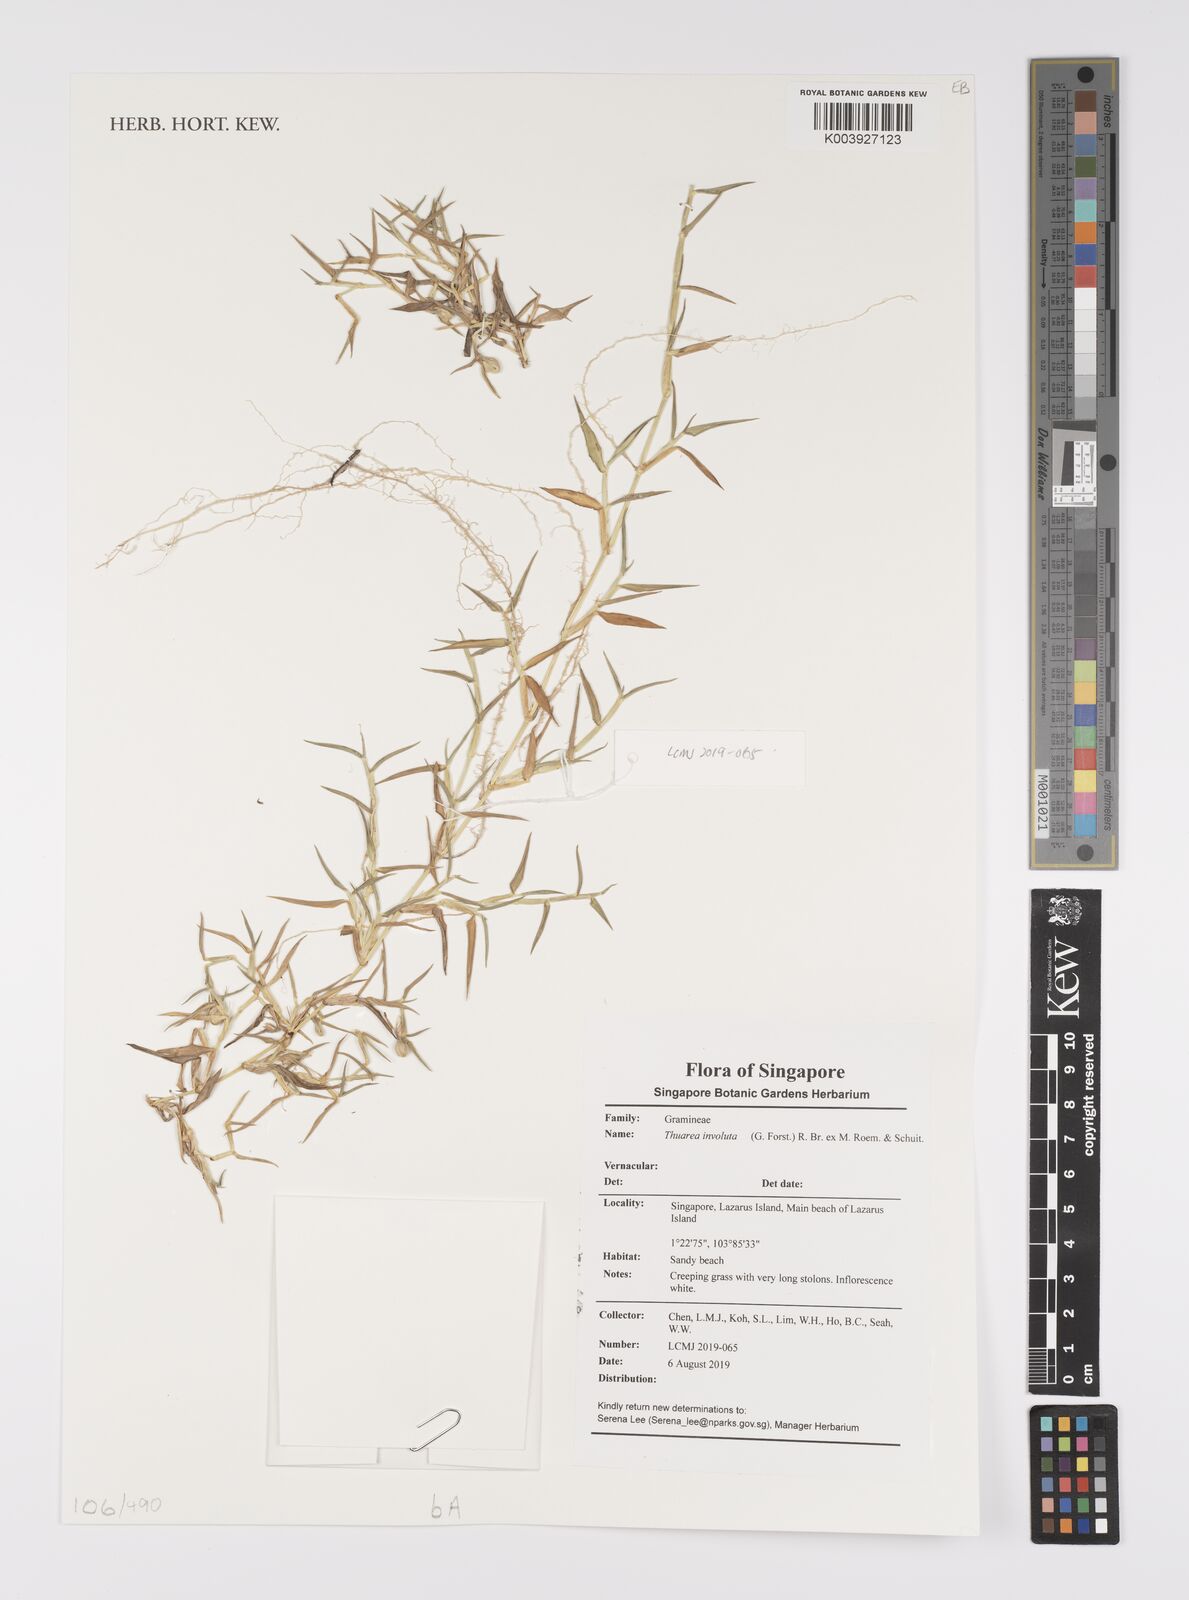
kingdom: Plantae
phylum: Tracheophyta
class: Liliopsida
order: Poales
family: Poaceae
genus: Thuarea
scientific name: Thuarea involuta
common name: Tropical beach grass
